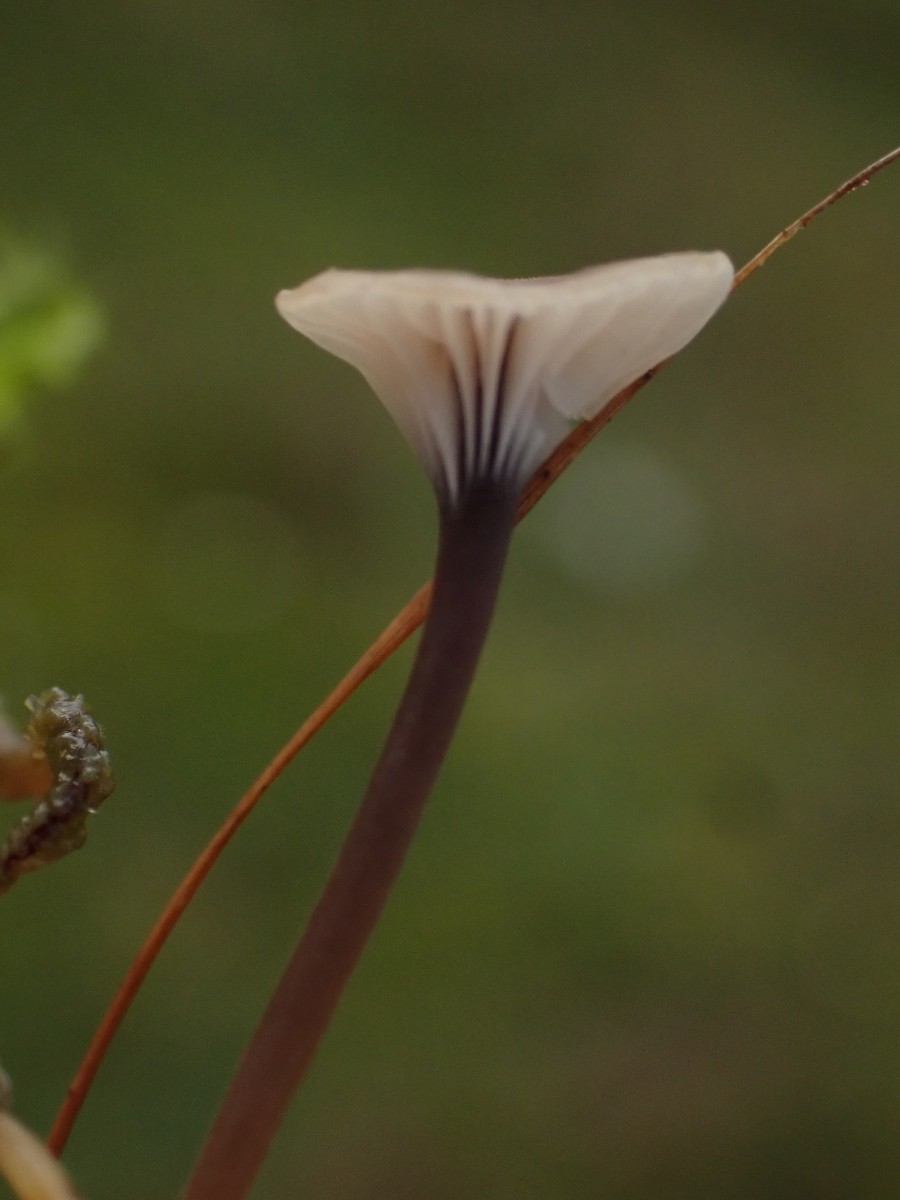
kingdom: Fungi
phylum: Basidiomycota
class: Agaricomycetes
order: Hymenochaetales
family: Rickenellaceae
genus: Rickenella
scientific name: Rickenella swartzii
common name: finstokket mosnavlehat
